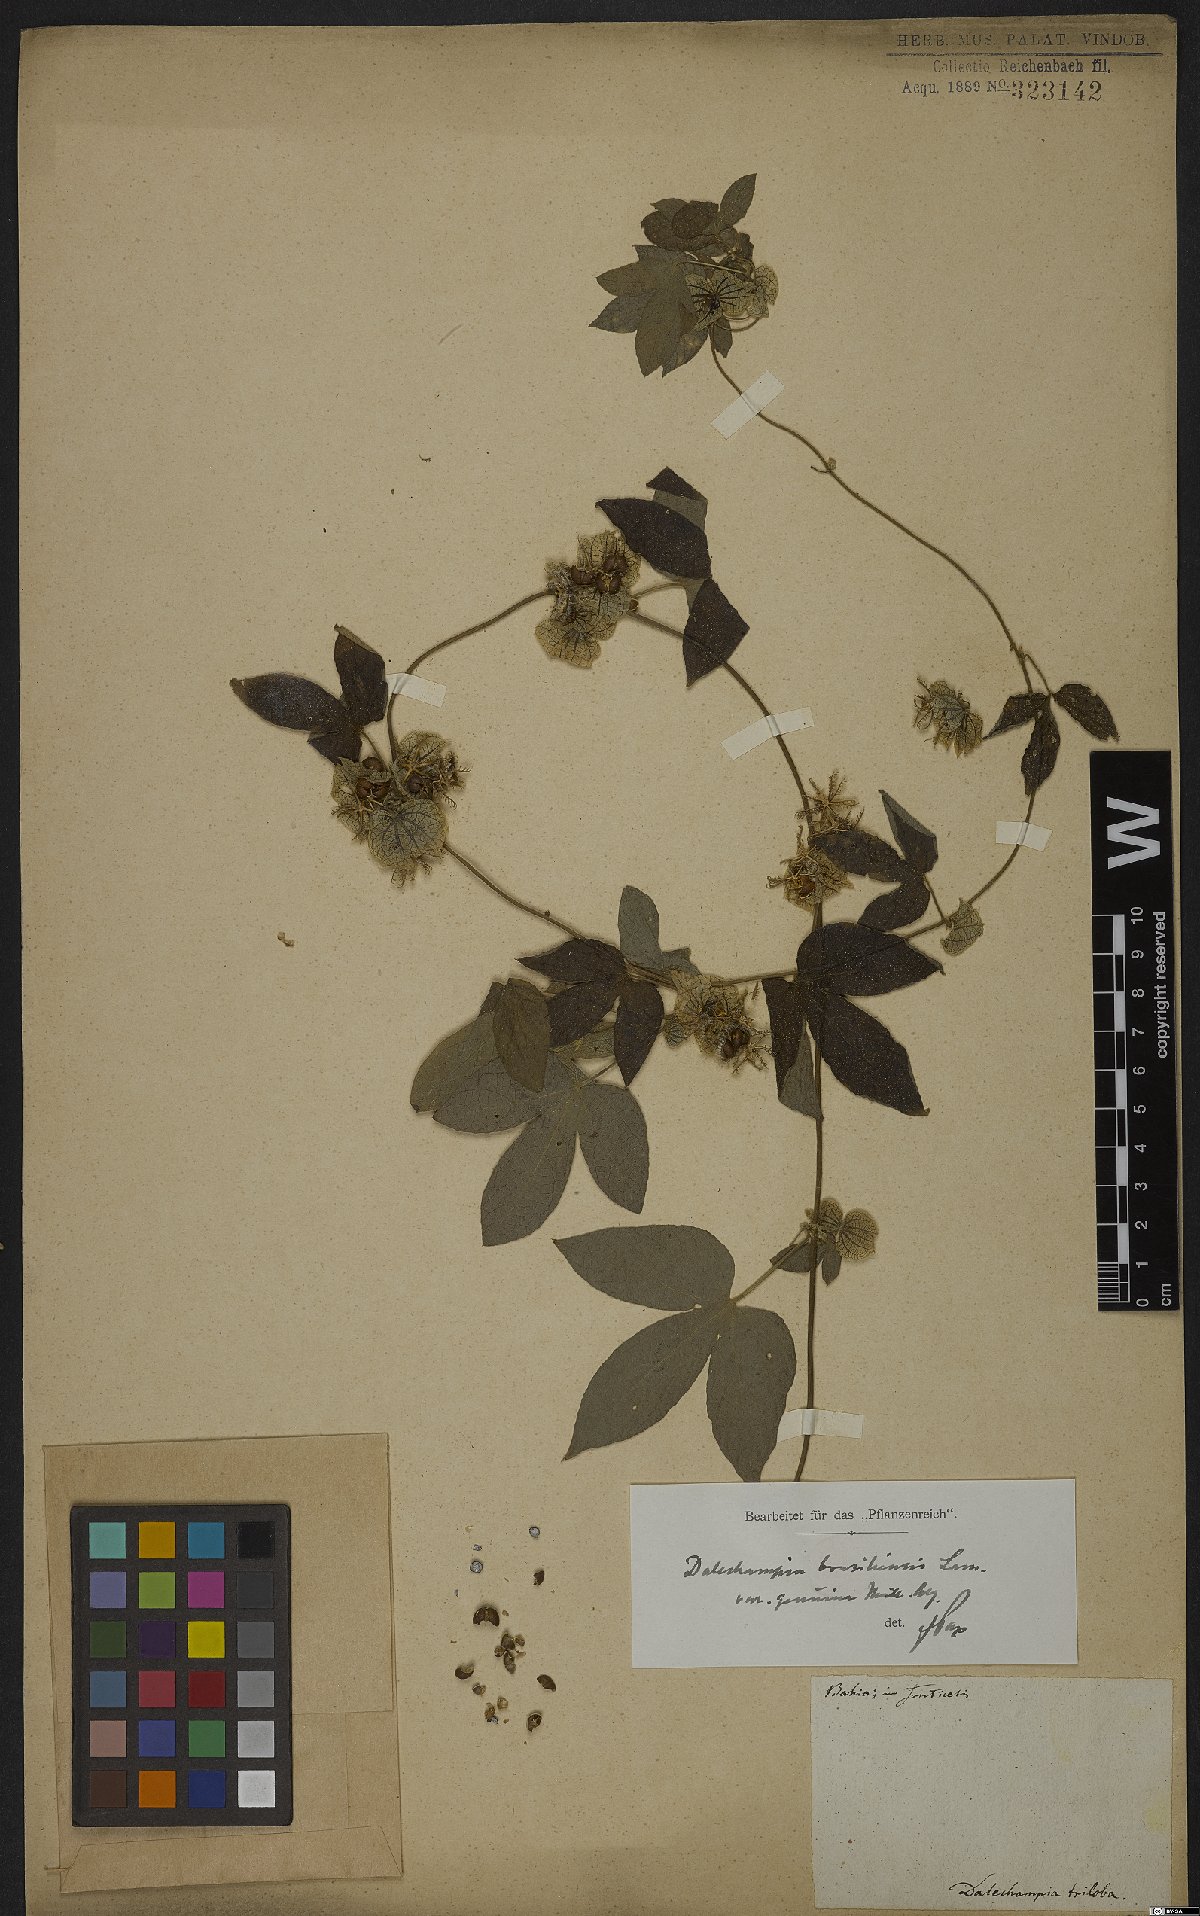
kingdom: Plantae
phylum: Tracheophyta
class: Magnoliopsida
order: Malpighiales
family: Euphorbiaceae
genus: Dalechampia
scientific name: Dalechampia brasiliensis
